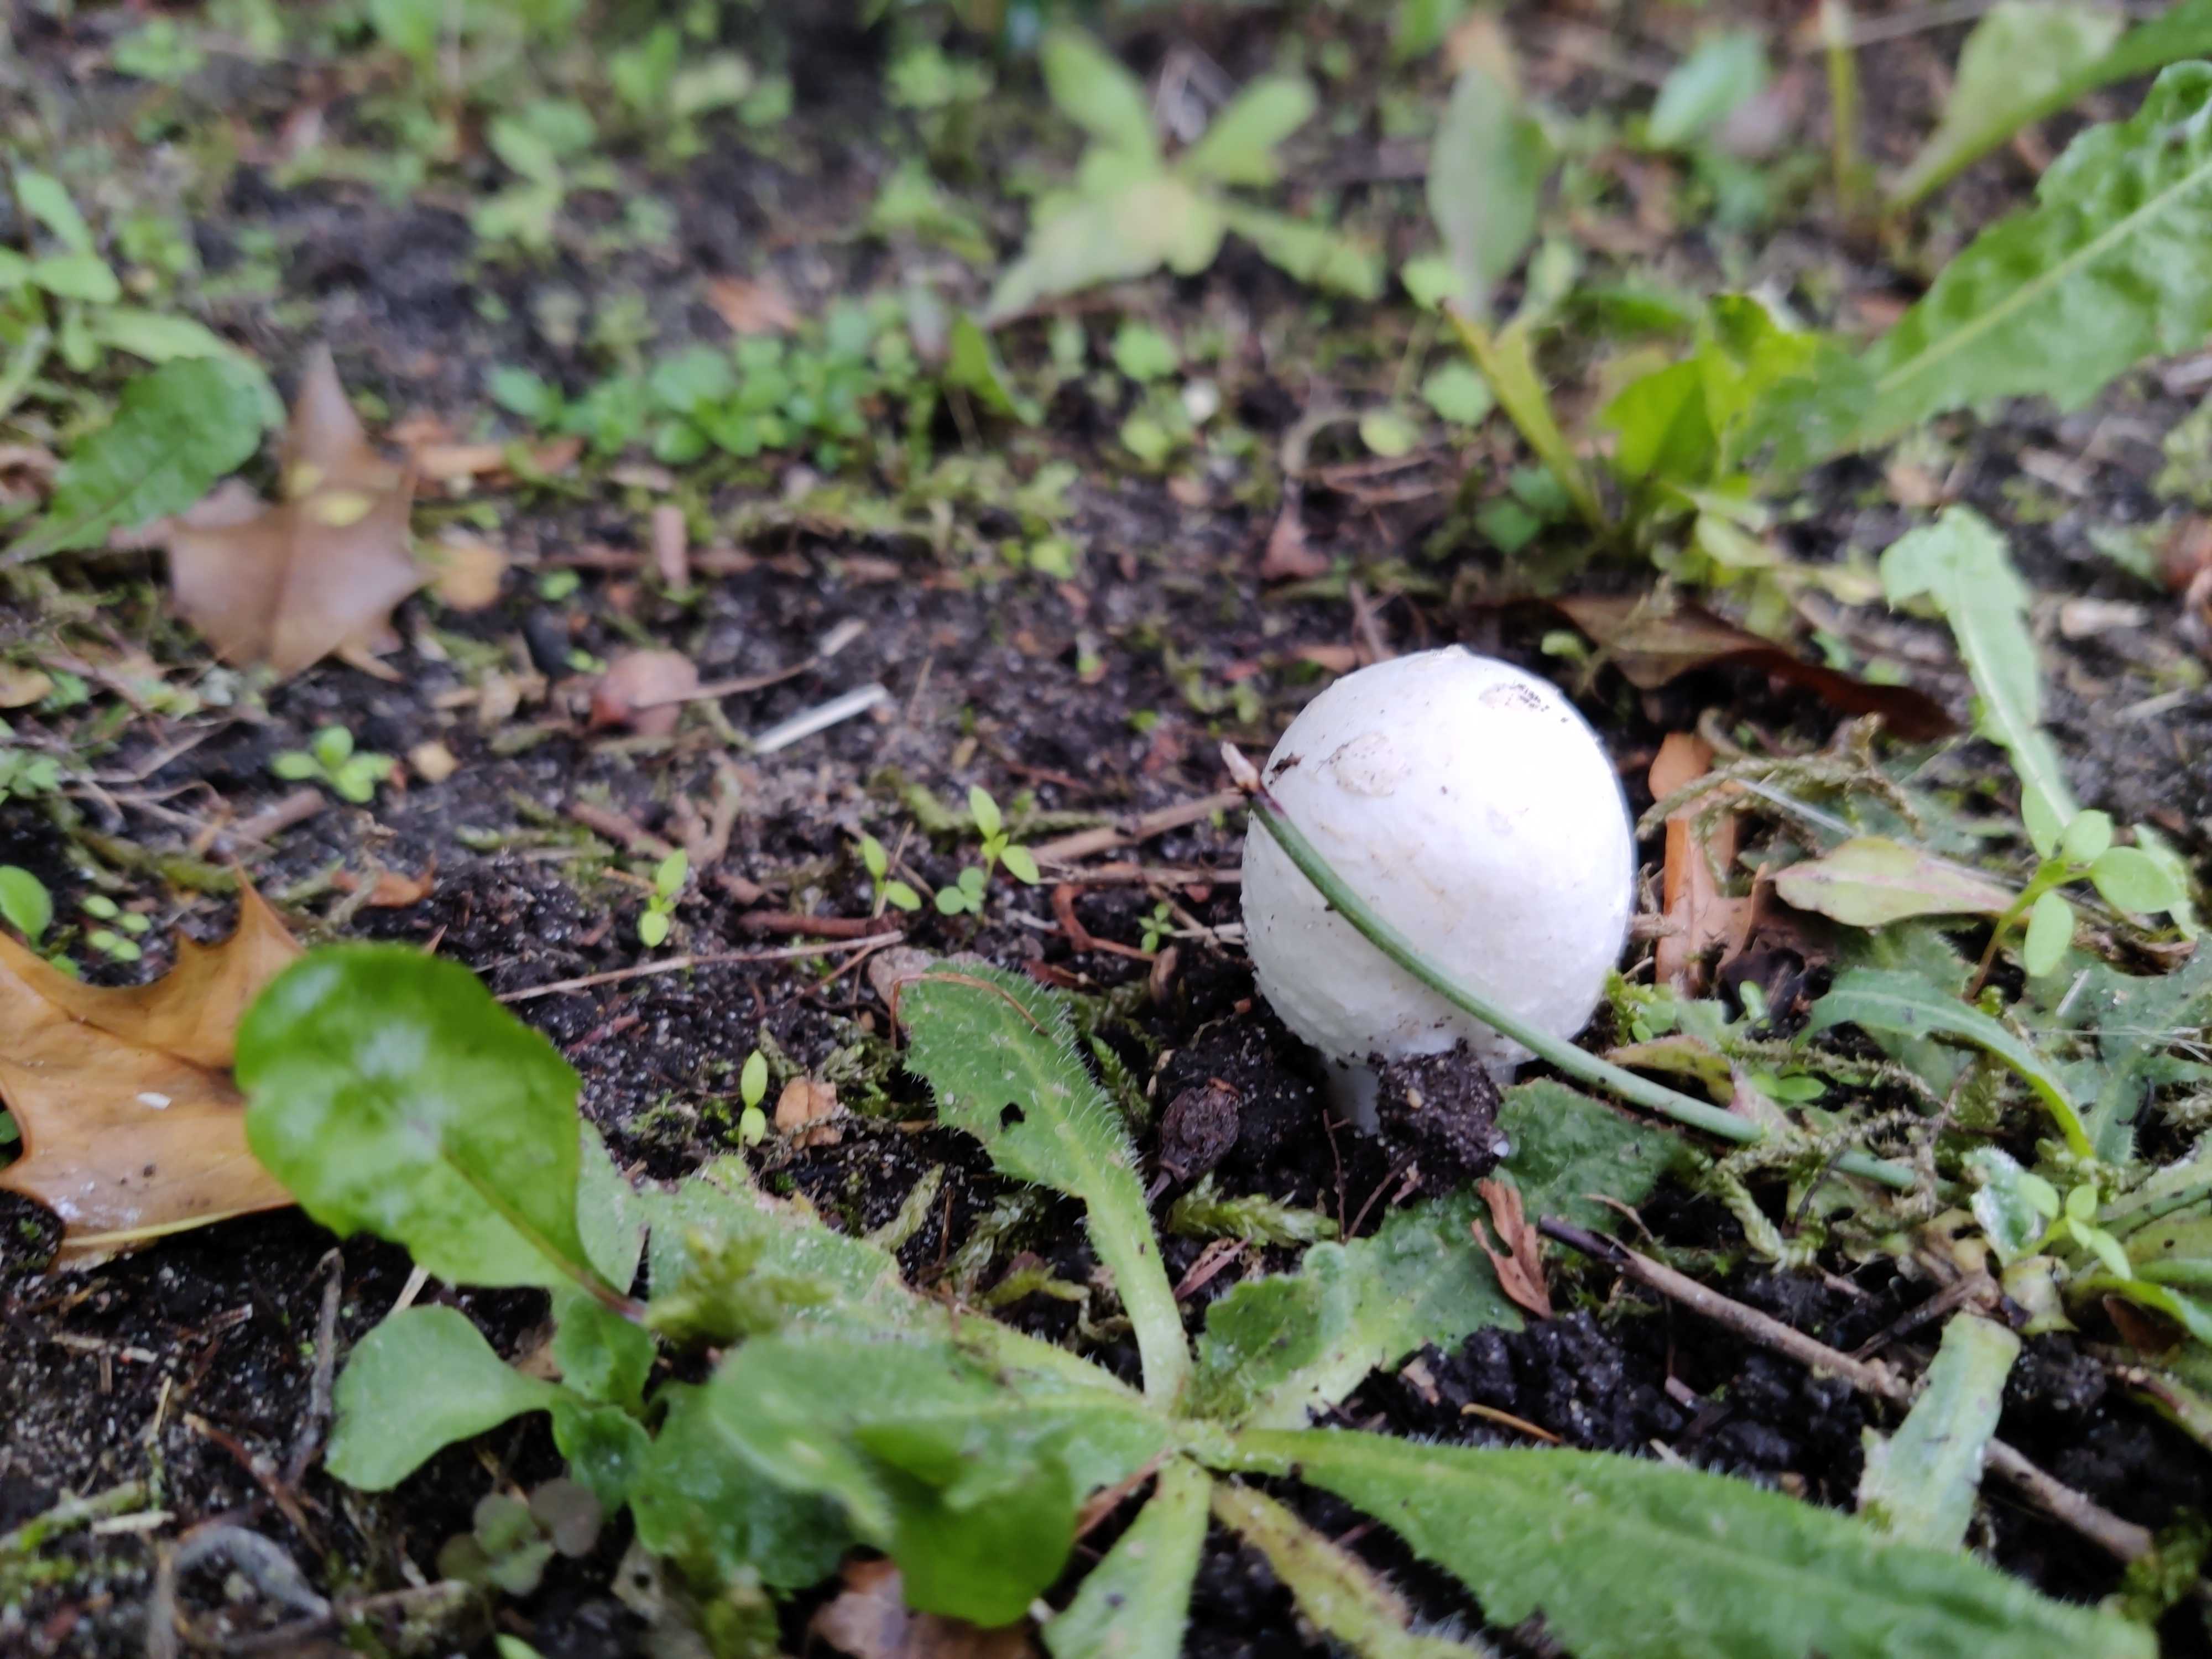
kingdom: Fungi
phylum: Basidiomycota
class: Agaricomycetes
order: Agaricales
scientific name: Agaricales
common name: champignonordenen
